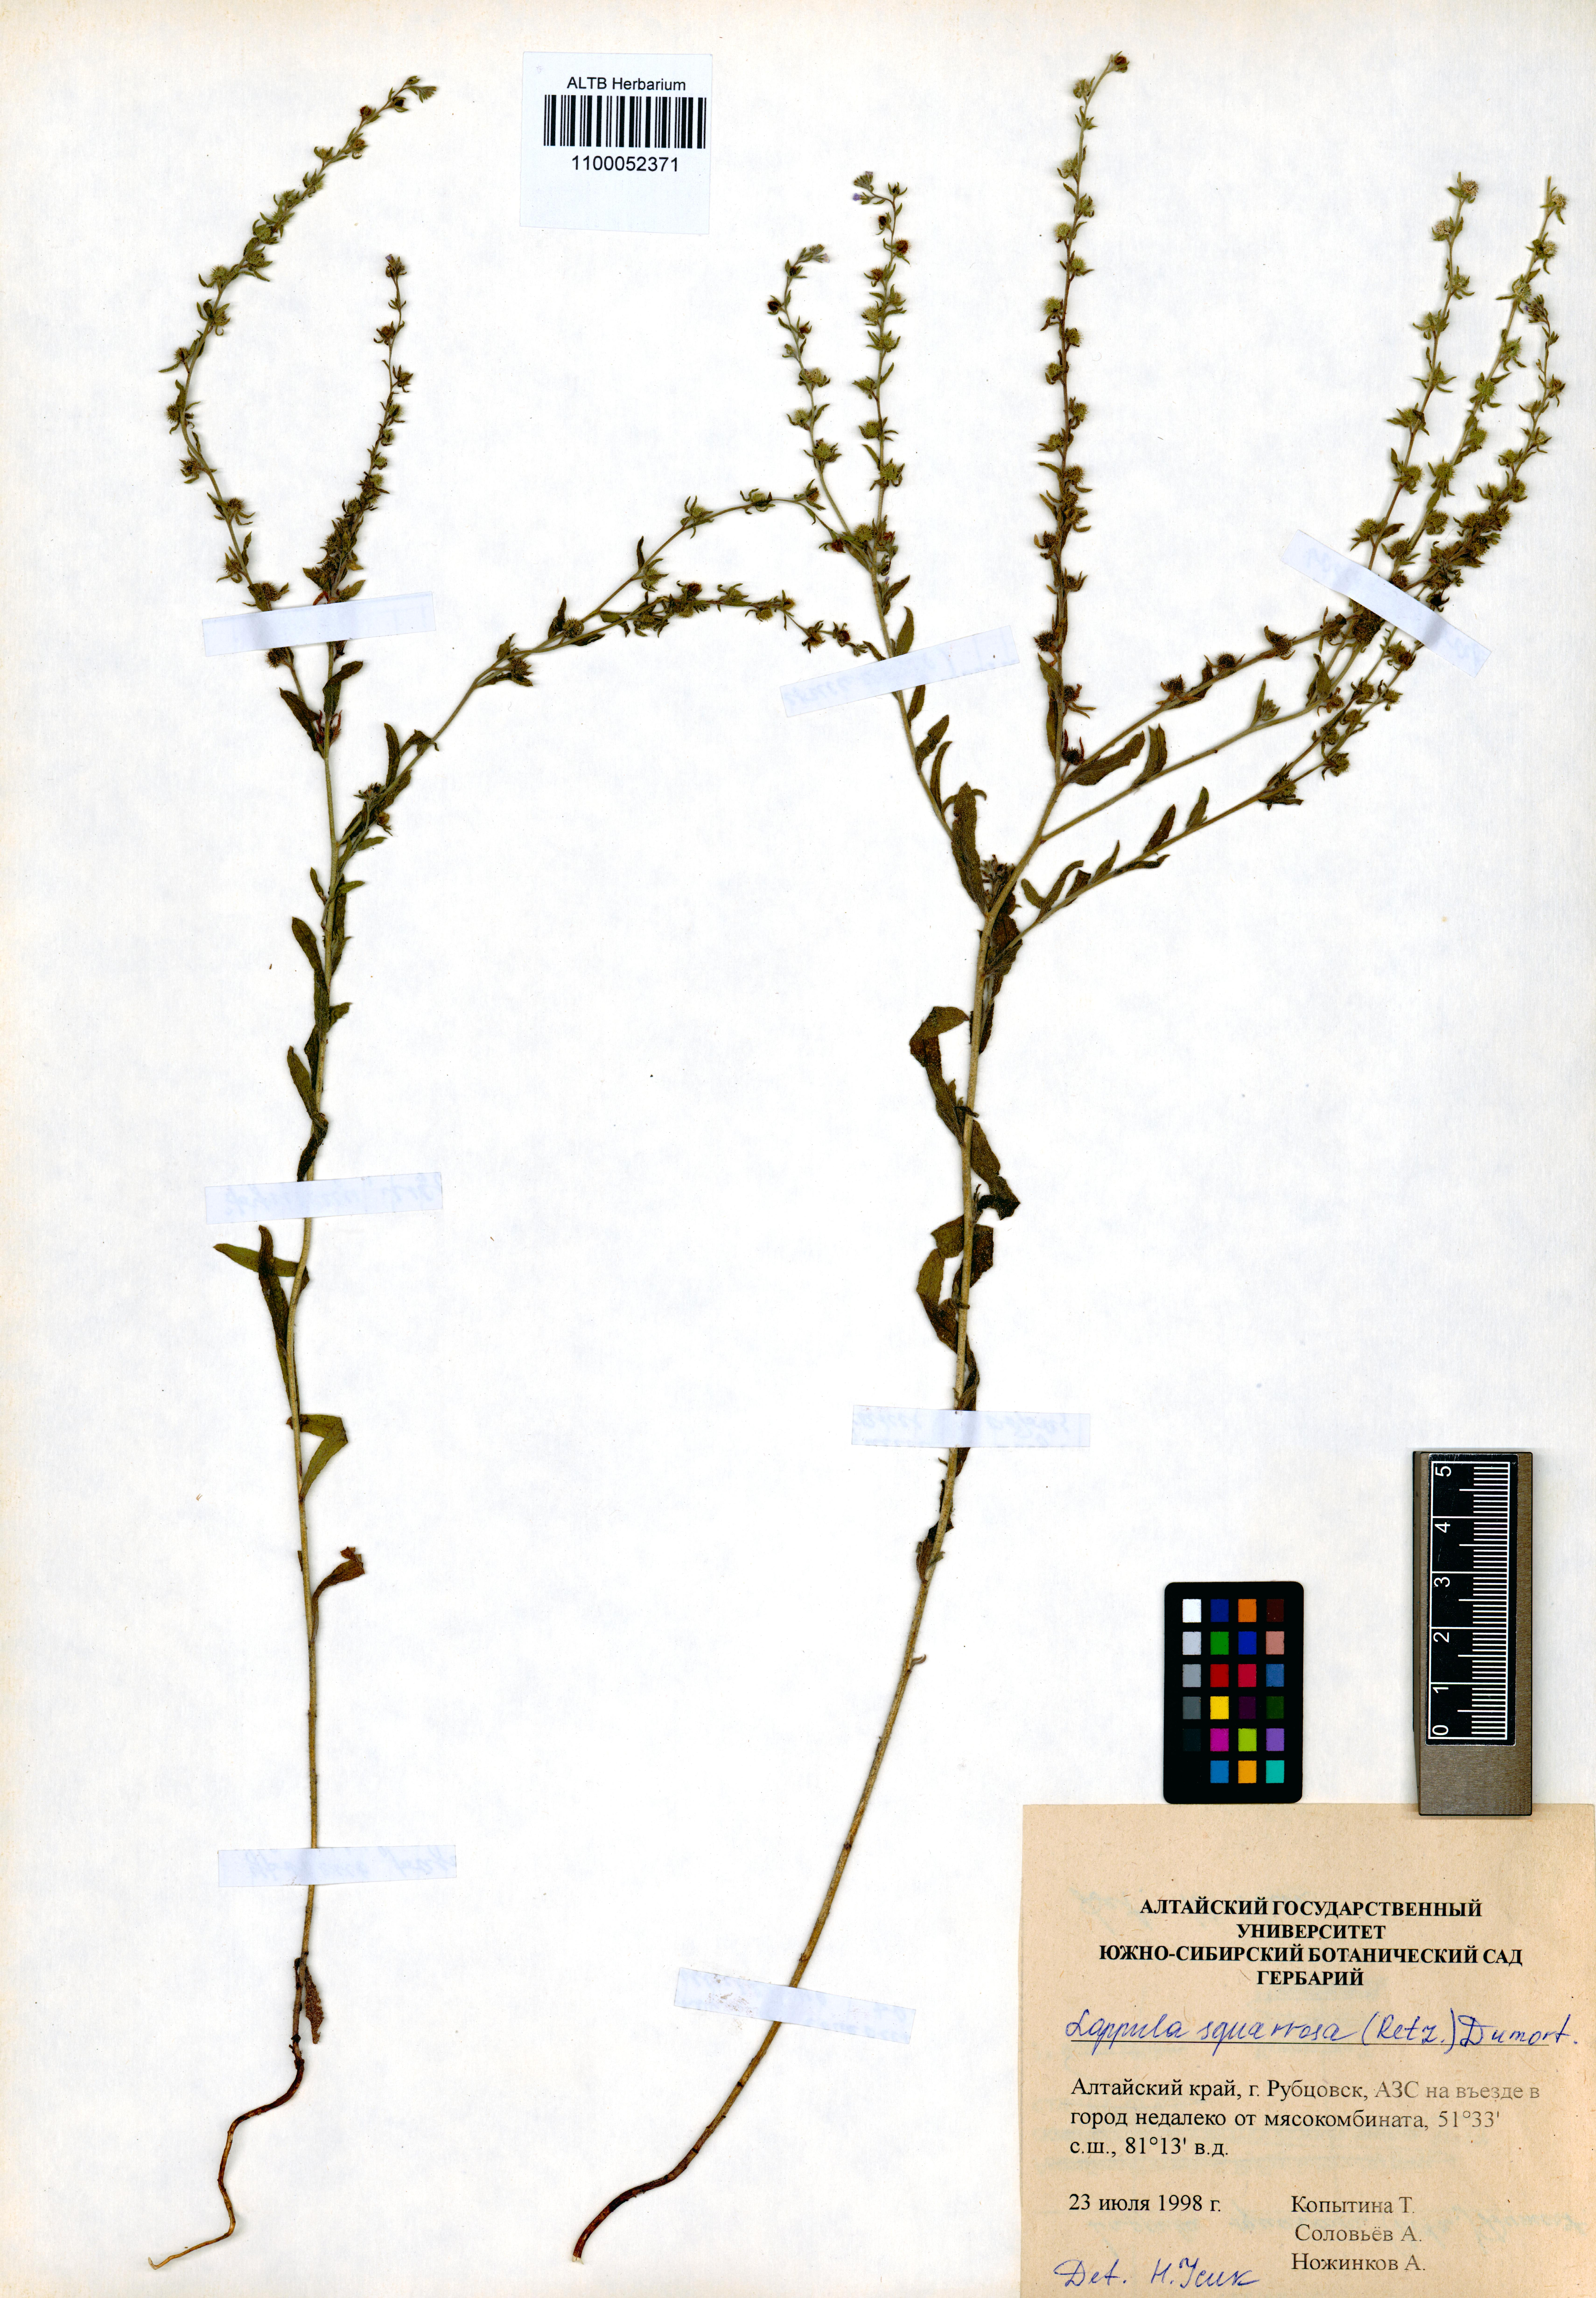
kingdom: Plantae
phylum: Tracheophyta
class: Magnoliopsida
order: Boraginales
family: Boraginaceae
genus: Lappula
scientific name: Lappula squarrosa
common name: European stickseed
